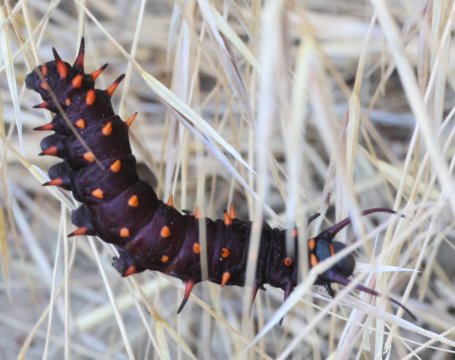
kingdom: Animalia
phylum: Arthropoda
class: Insecta
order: Lepidoptera
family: Papilionidae
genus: Battus
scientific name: Battus philenor
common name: Pipevine Swallowtail
